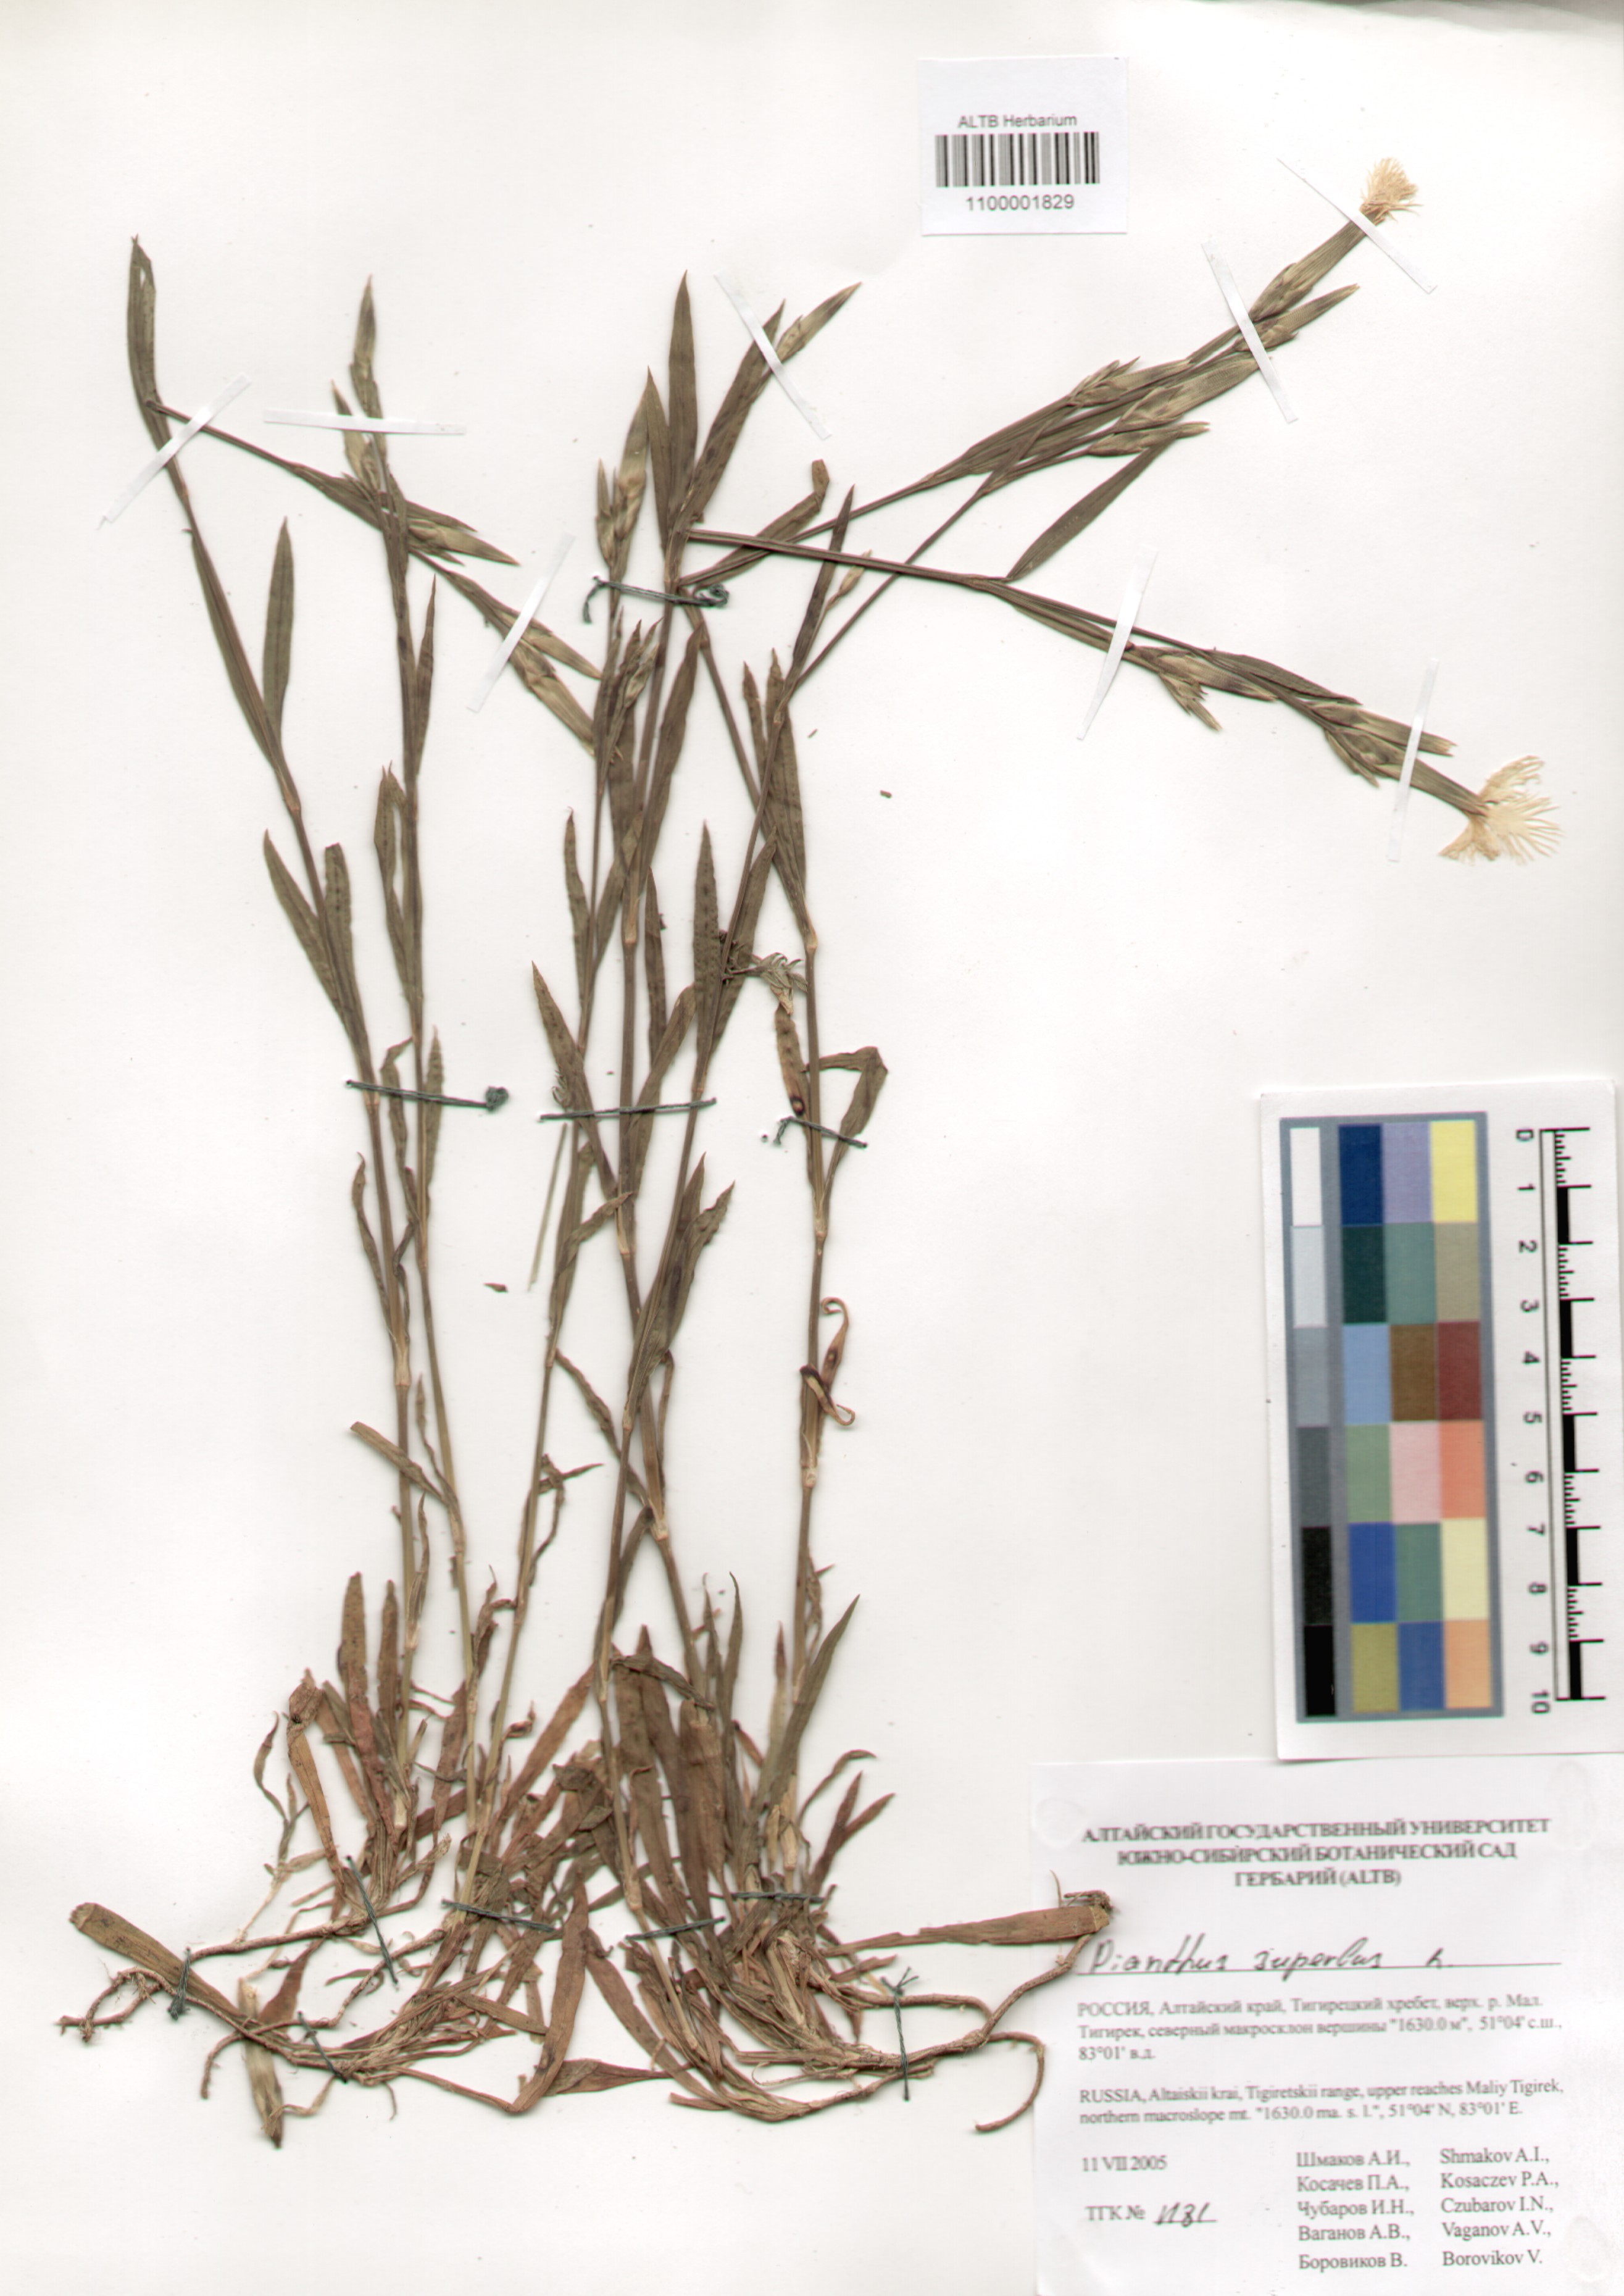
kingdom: Plantae
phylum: Tracheophyta
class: Magnoliopsida
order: Caryophyllales
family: Caryophyllaceae
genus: Dianthus
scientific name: Dianthus superbus
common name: Fringed pink
